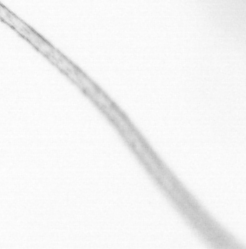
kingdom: Animalia
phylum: Arthropoda
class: Copepoda
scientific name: Copepoda
